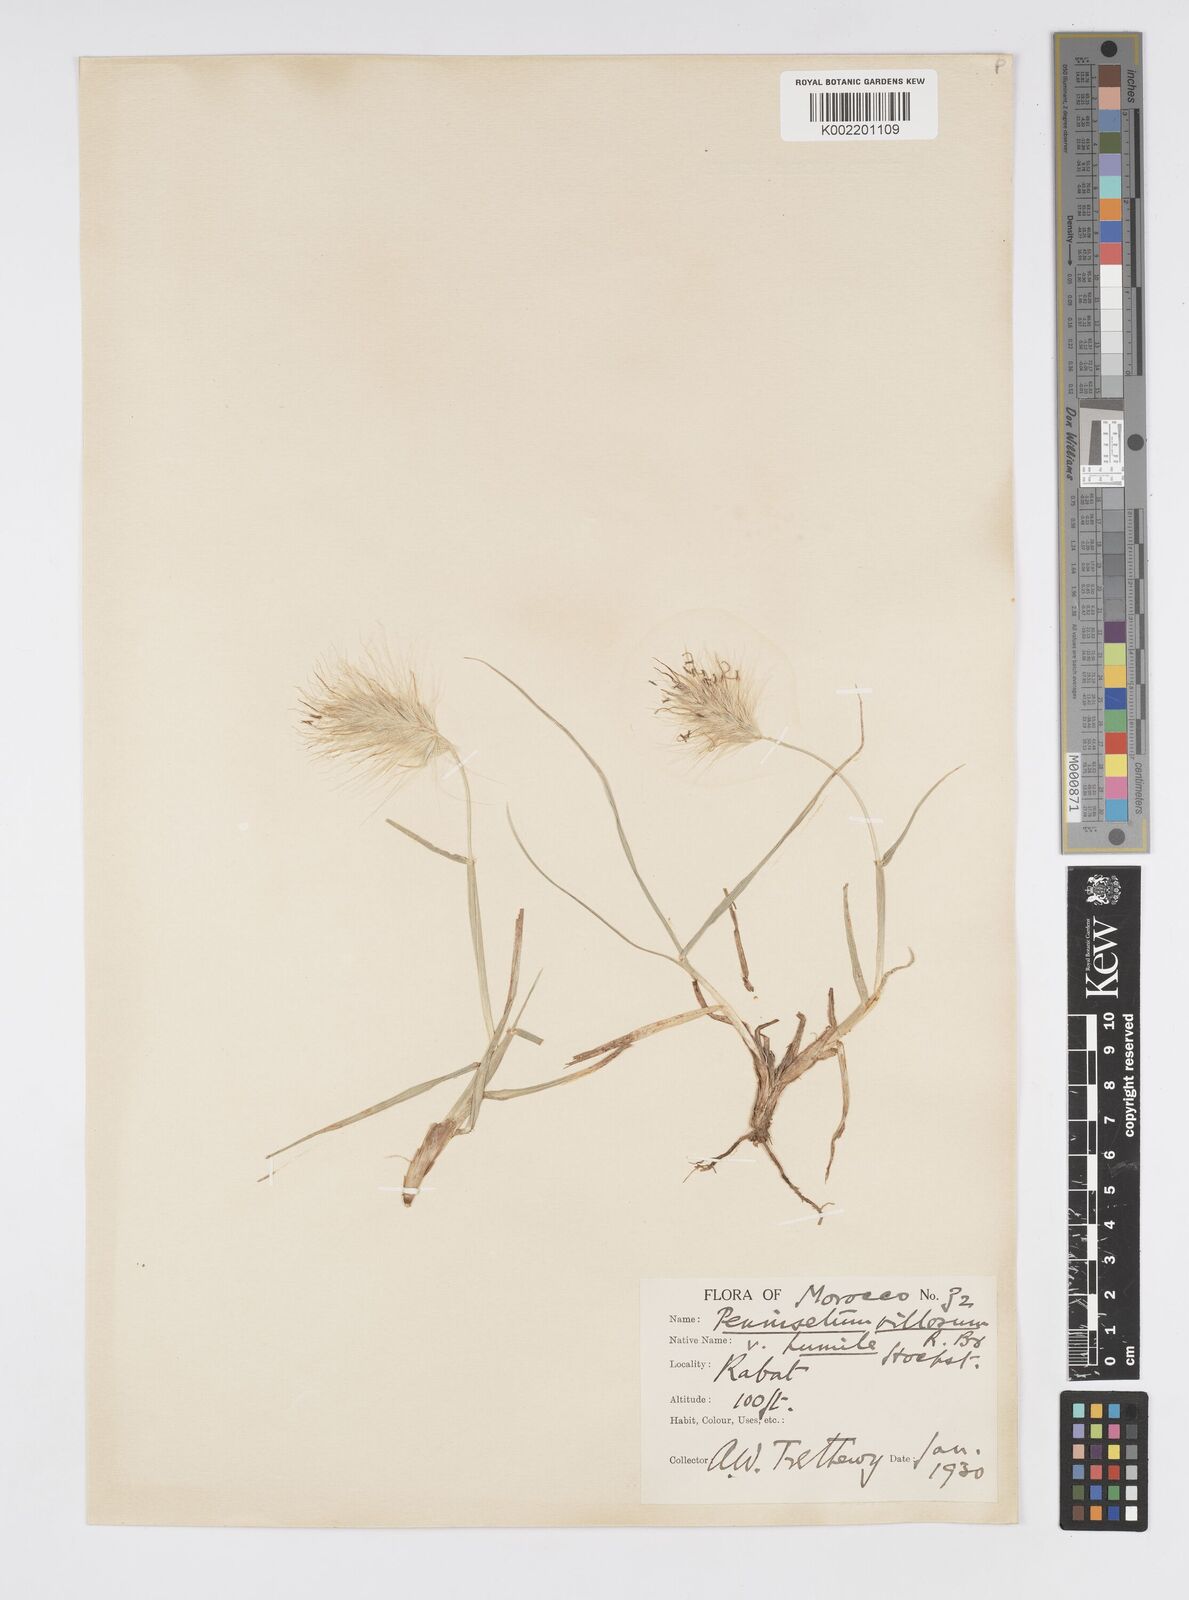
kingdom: Plantae
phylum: Tracheophyta
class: Liliopsida
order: Poales
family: Poaceae
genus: Cenchrus
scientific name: Cenchrus longisetus
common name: Feathertop
